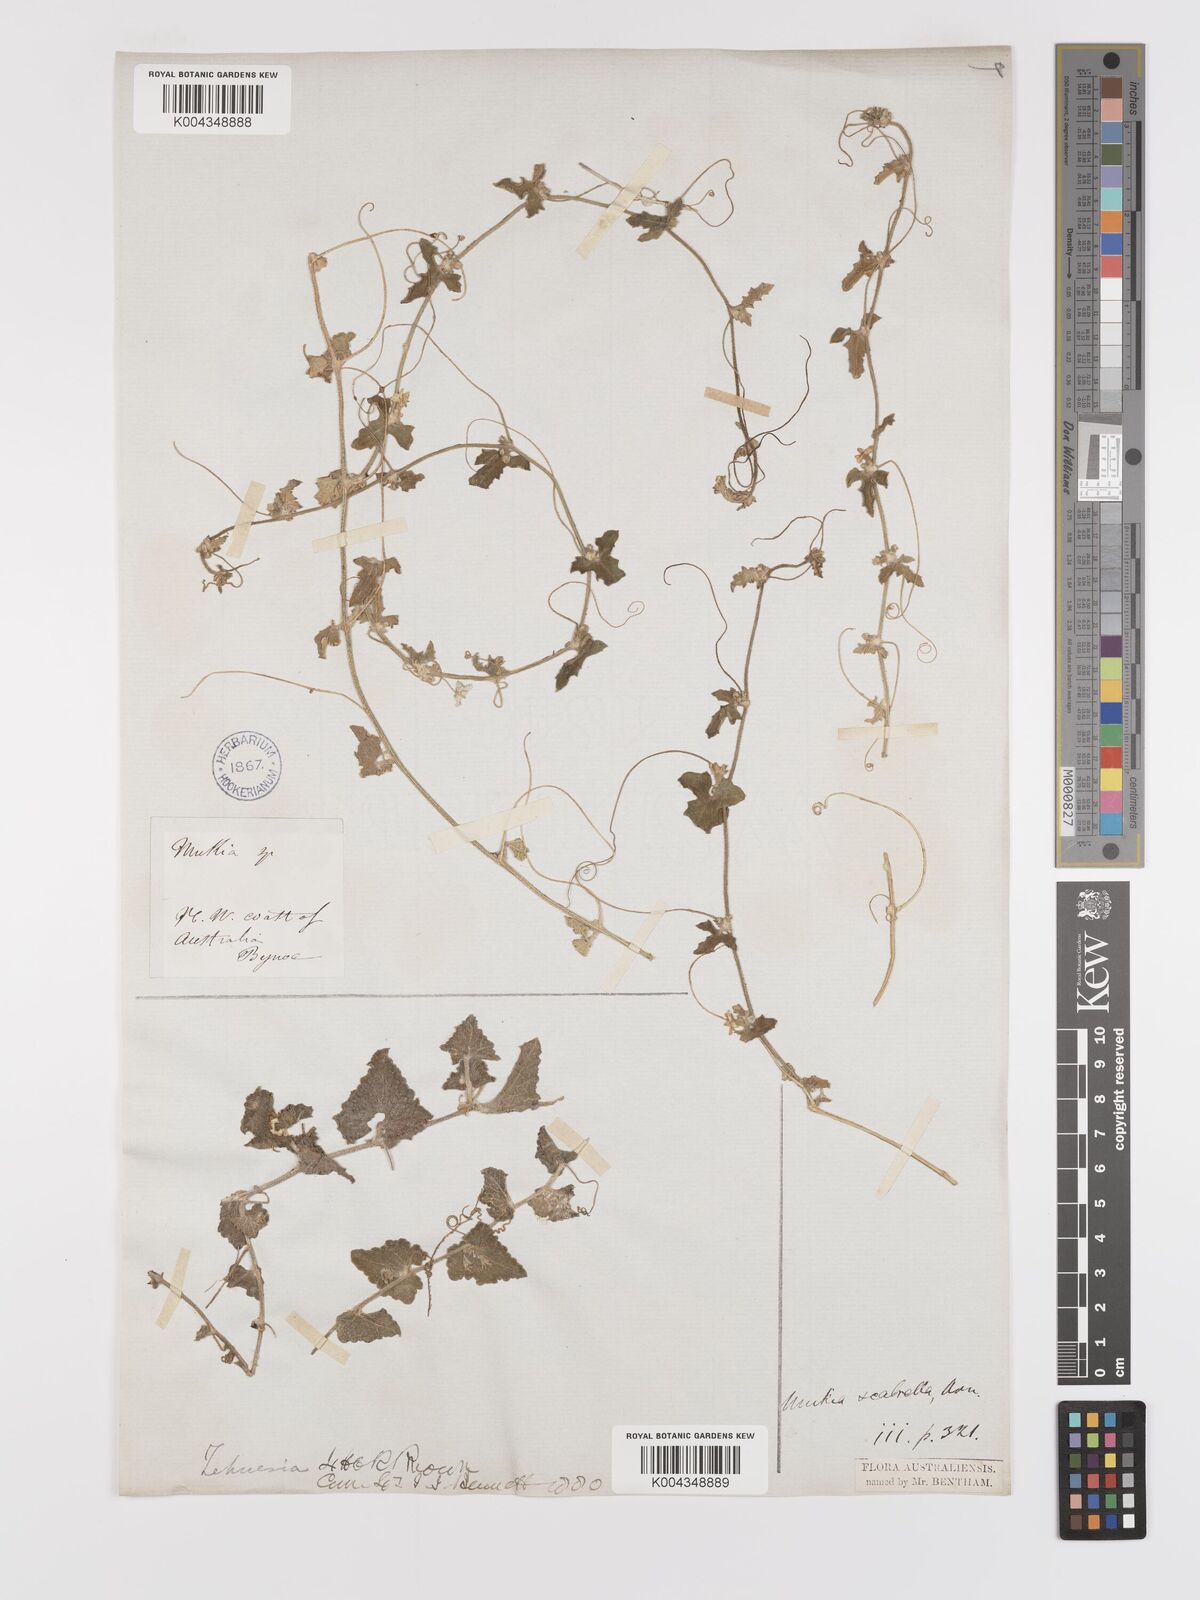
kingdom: Animalia
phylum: Arthropoda
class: Insecta
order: Lepidoptera
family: Crambidae
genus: Mukia
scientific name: Mukia
